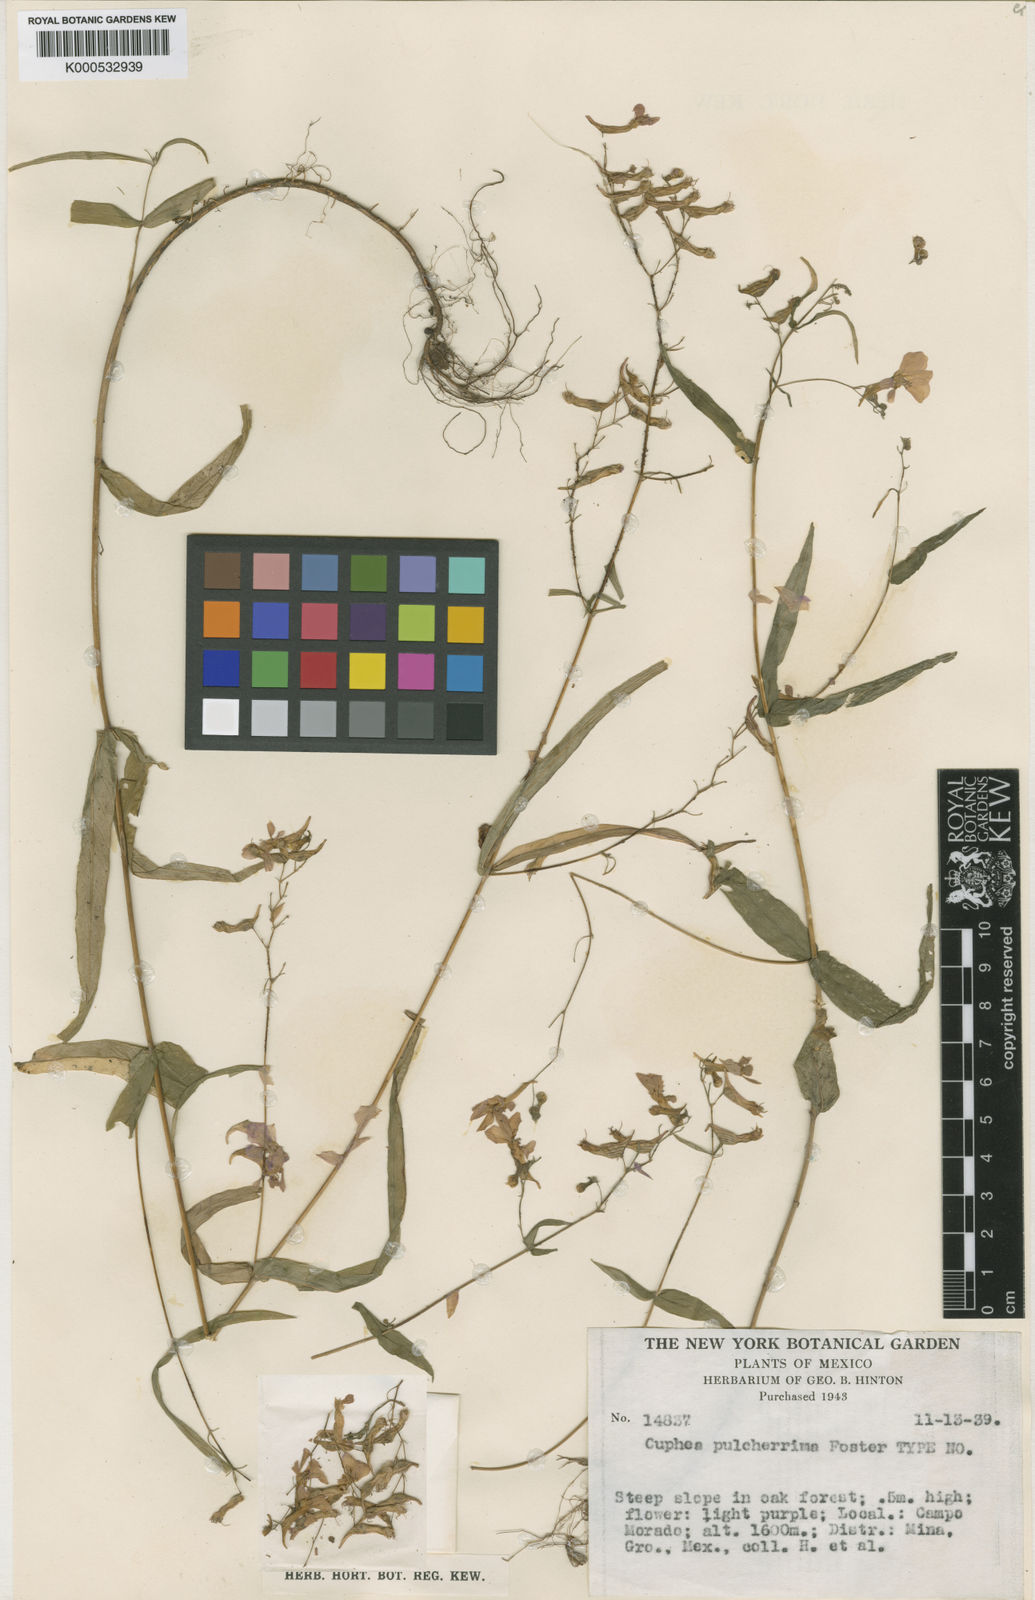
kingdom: Plantae
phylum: Tracheophyta
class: Magnoliopsida
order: Myrtales
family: Lythraceae
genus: Cuphea
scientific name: Cuphea avigera
